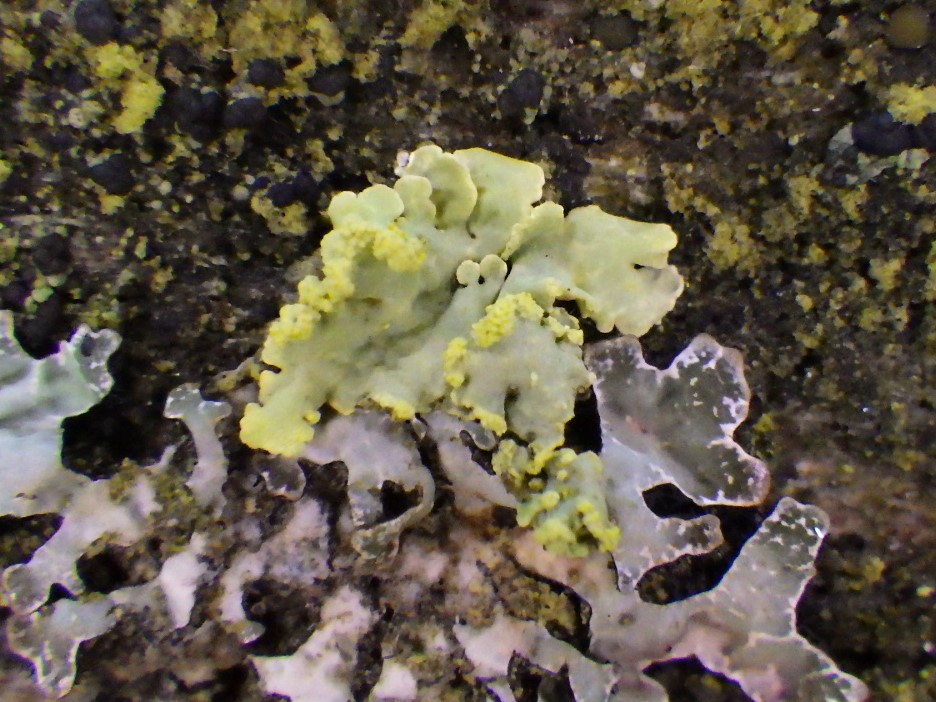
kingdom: Fungi
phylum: Ascomycota
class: Lecanoromycetes
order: Lecanorales
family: Parmeliaceae
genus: Vulpicida
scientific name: Vulpicida pinastri
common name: gul kruslav
